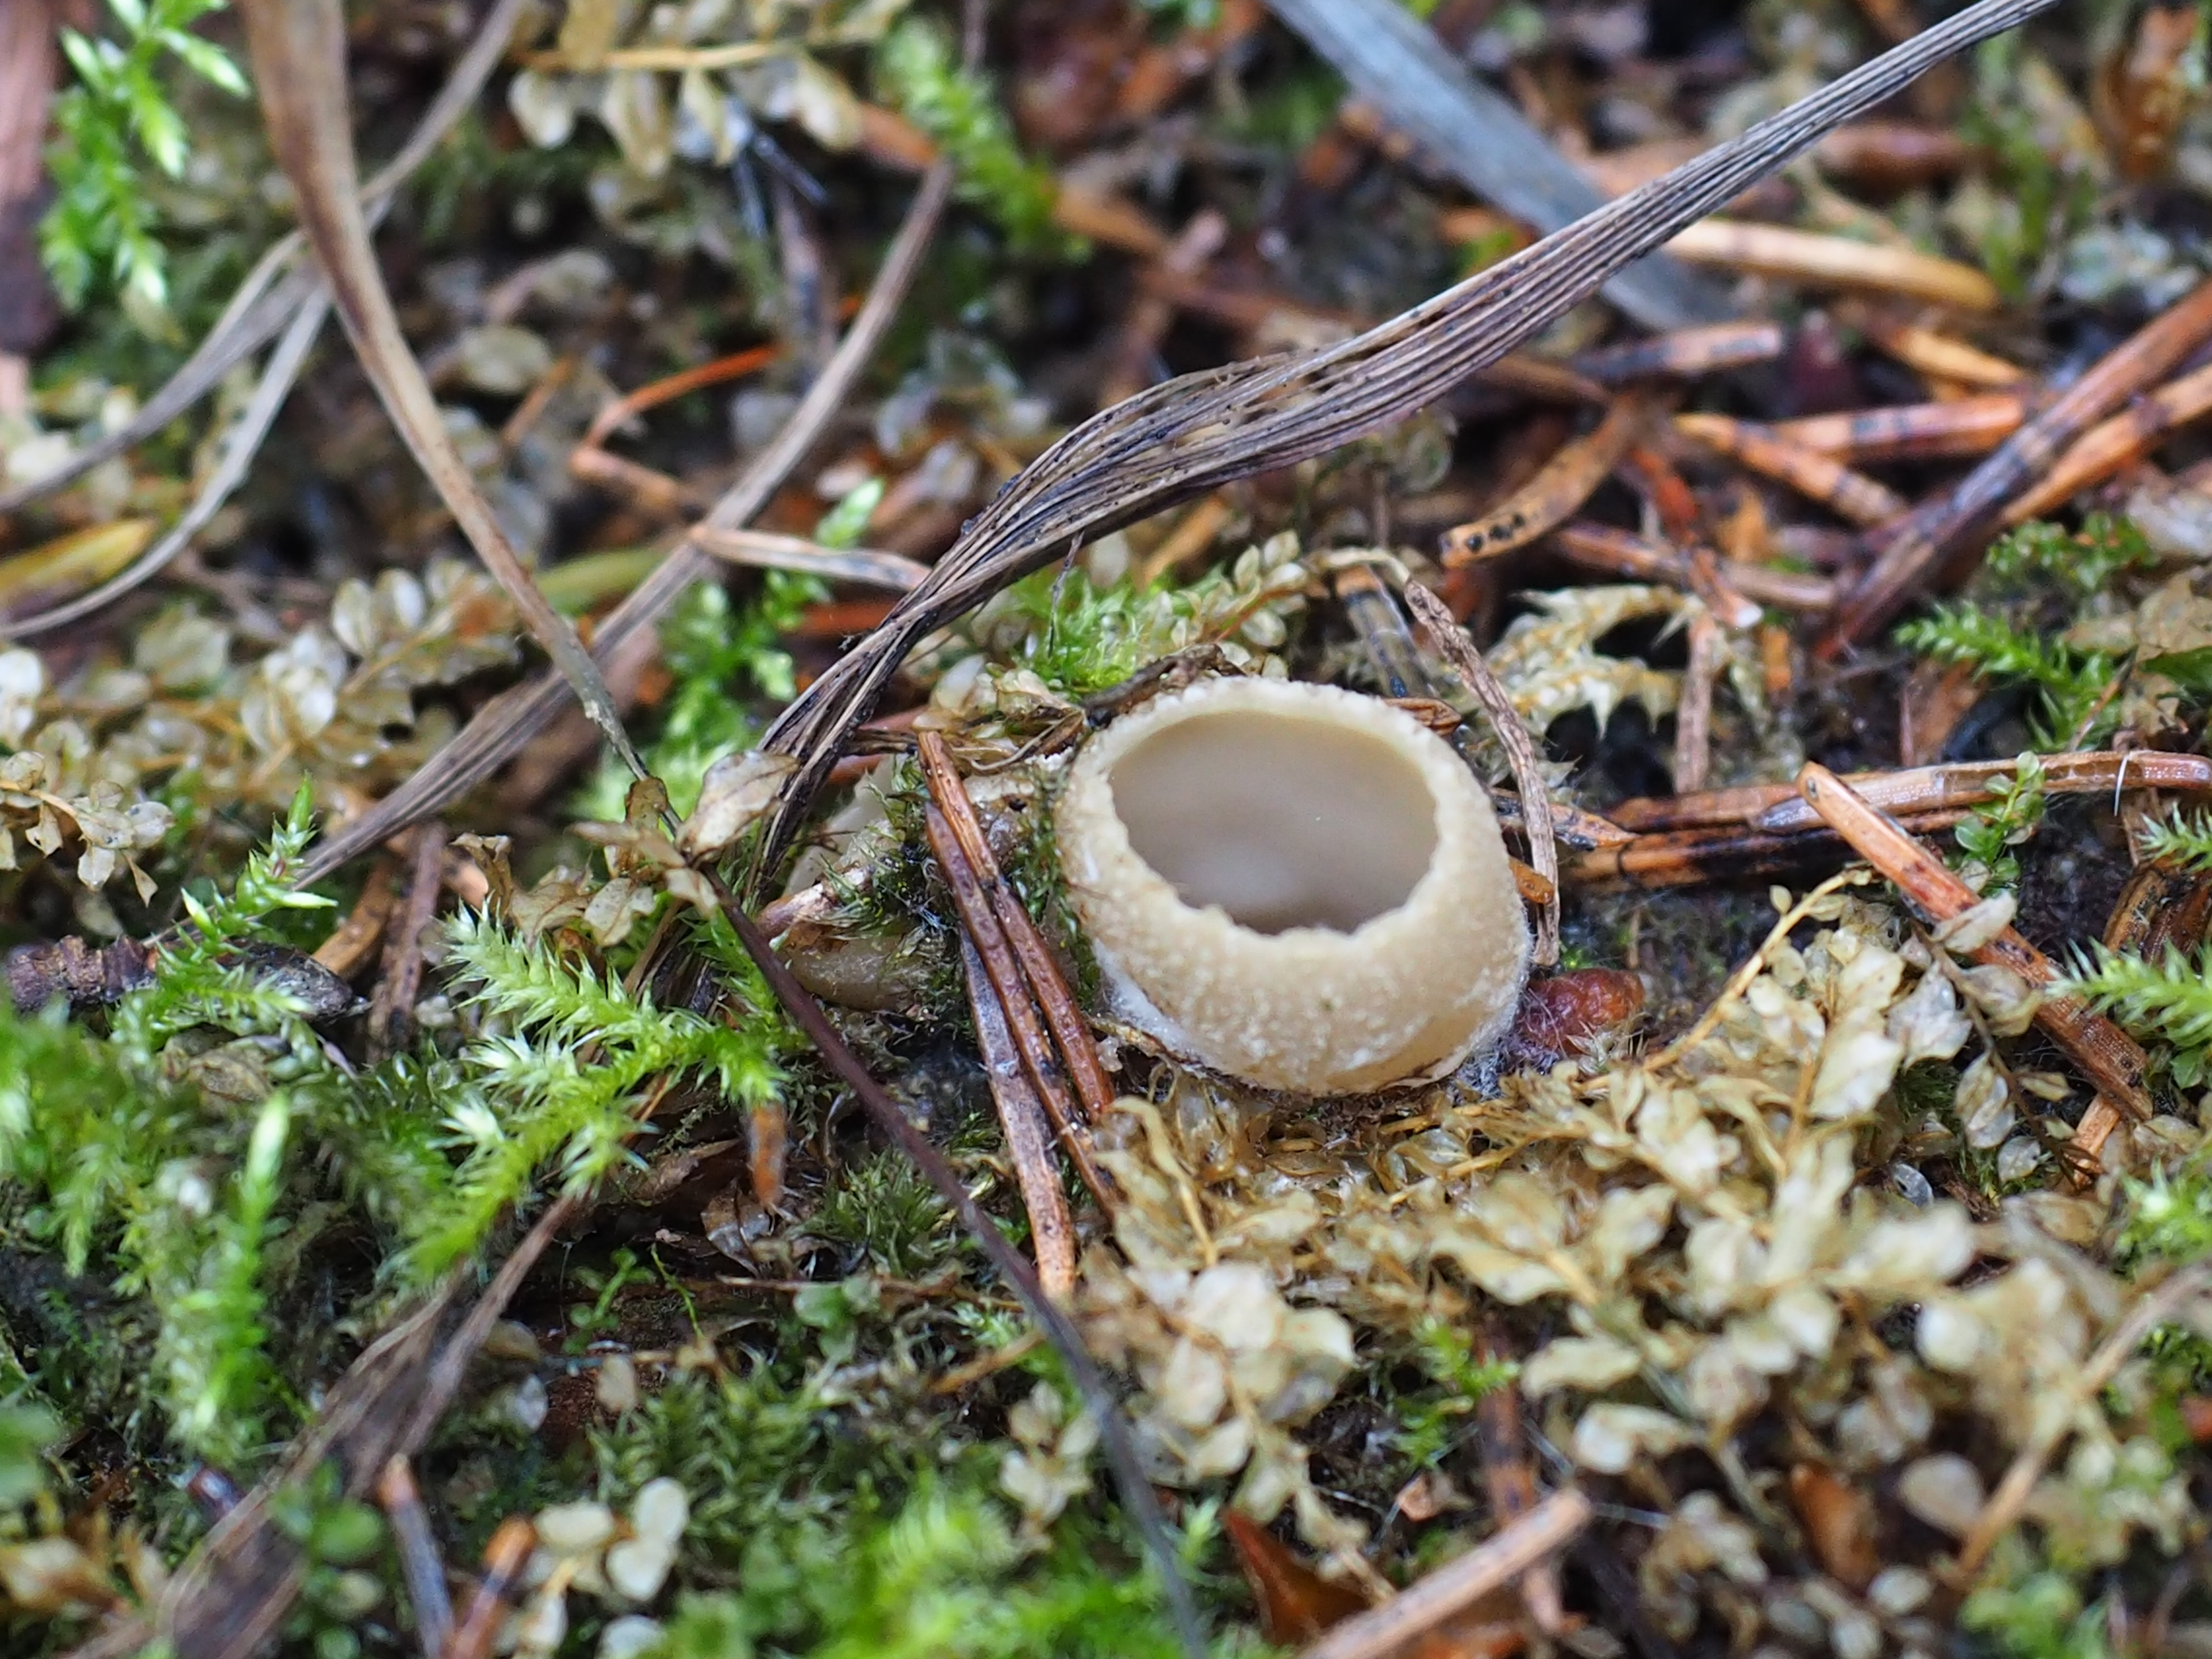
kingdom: Fungi
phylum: Ascomycota
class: Pezizomycetes
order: Pezizales
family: Tarzettaceae
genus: Tarzetta
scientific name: Tarzetta catinus
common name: Greater toothed cup
